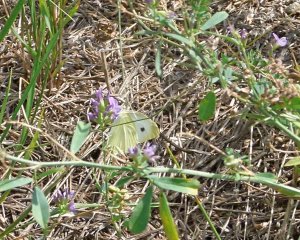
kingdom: Animalia
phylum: Arthropoda
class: Insecta
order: Lepidoptera
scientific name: Lepidoptera
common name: Butterflies
